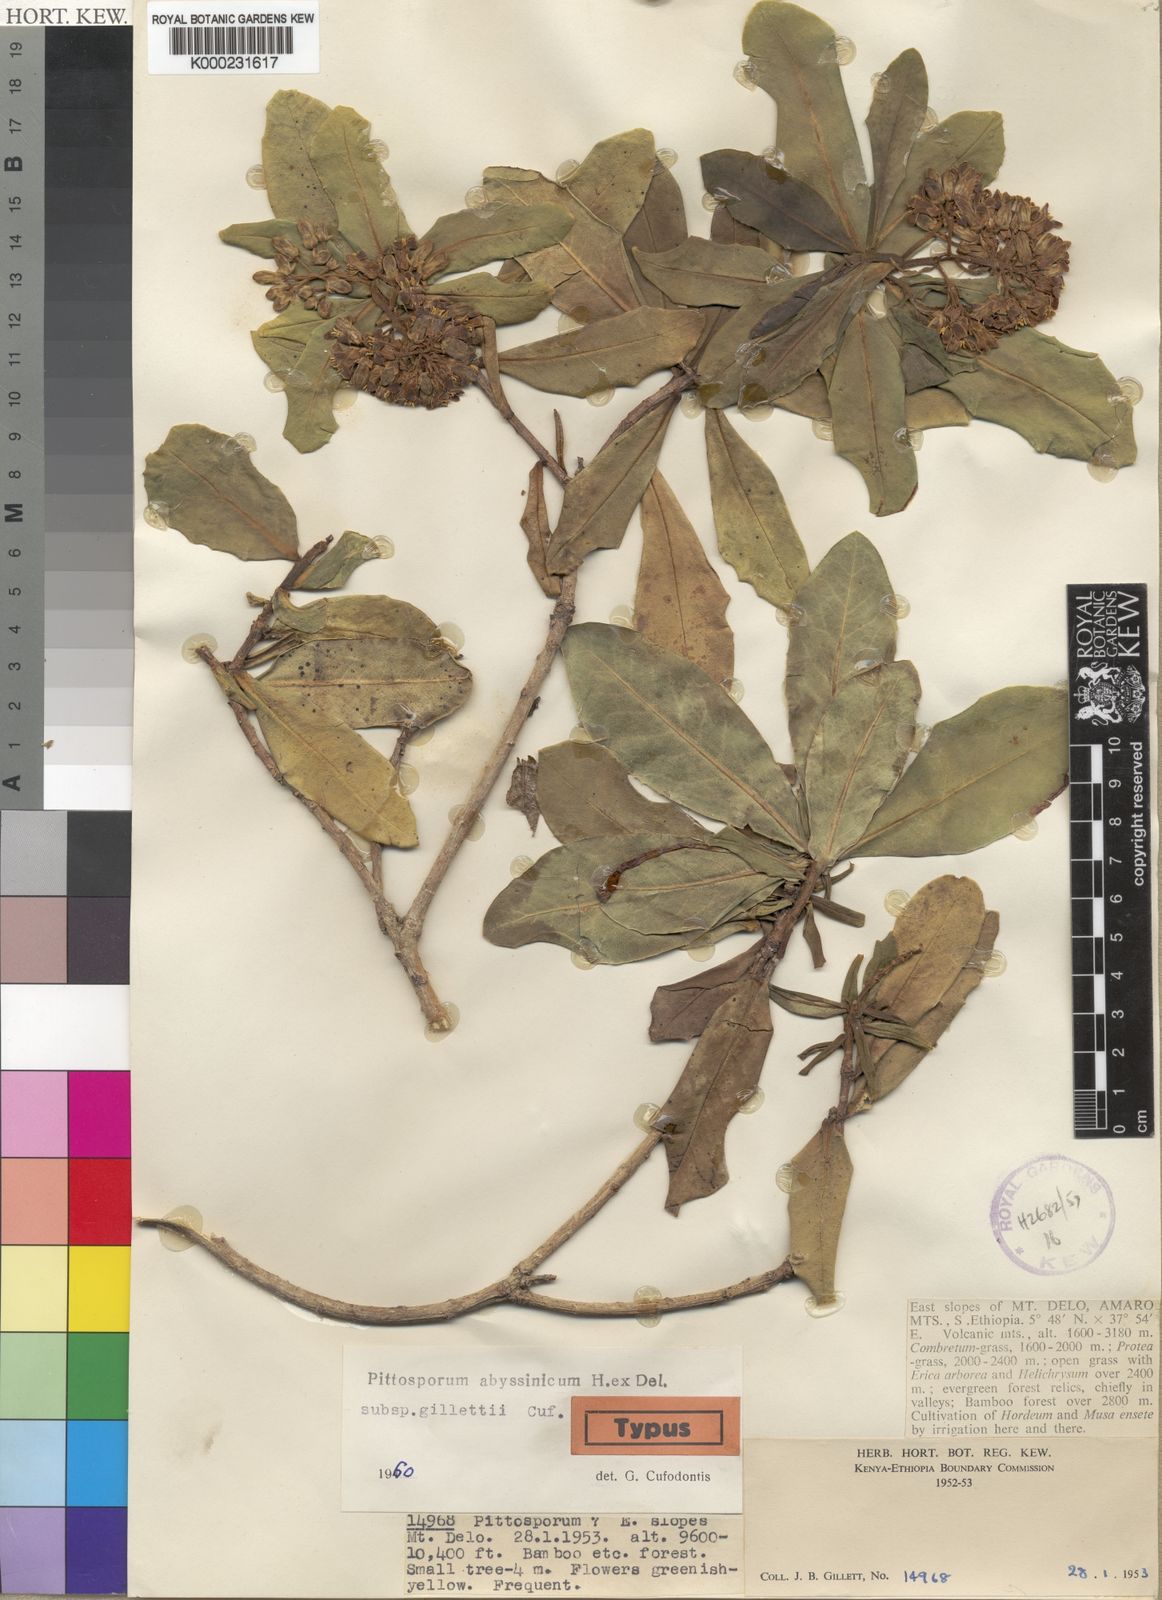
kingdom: Plantae
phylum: Tracheophyta
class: Magnoliopsida
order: Apiales
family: Pittosporaceae
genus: Pittosporum
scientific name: Pittosporum abyssinicum
